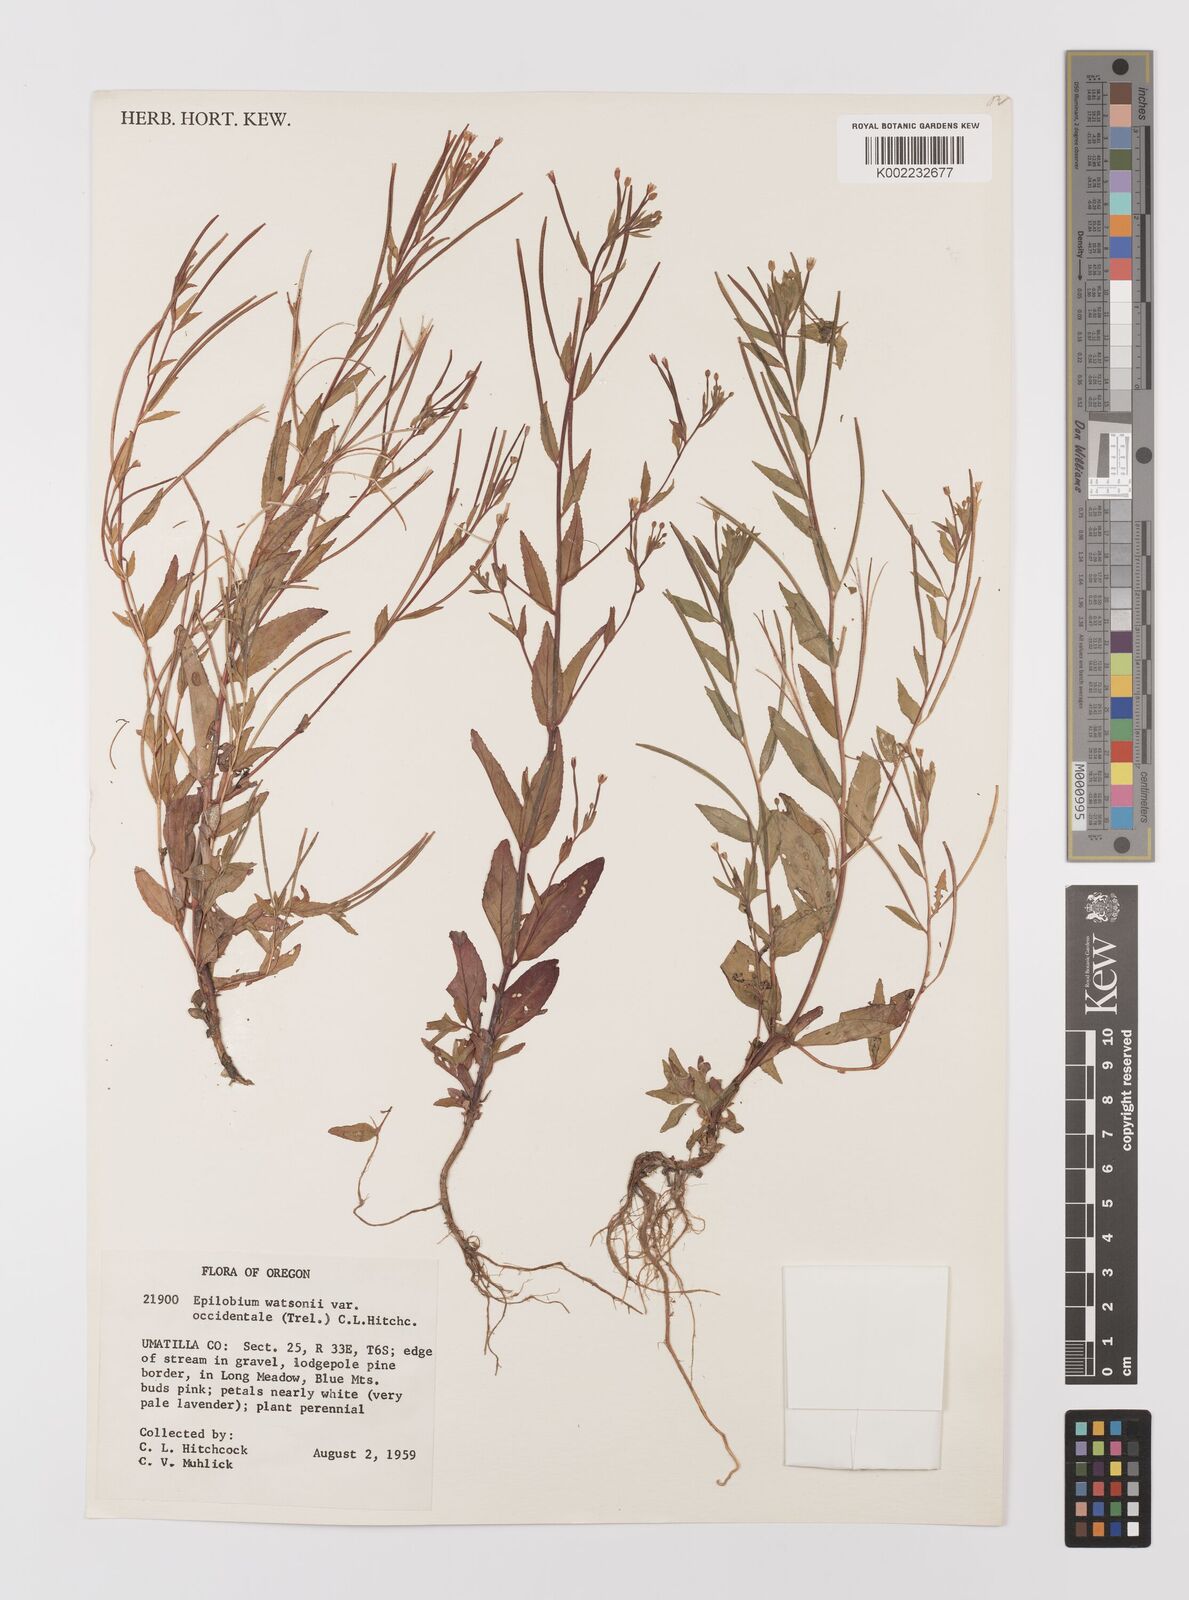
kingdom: Plantae
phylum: Tracheophyta
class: Magnoliopsida
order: Myrtales
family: Onagraceae
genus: Epilobium
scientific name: Epilobium ciliatum
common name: American willowherb
